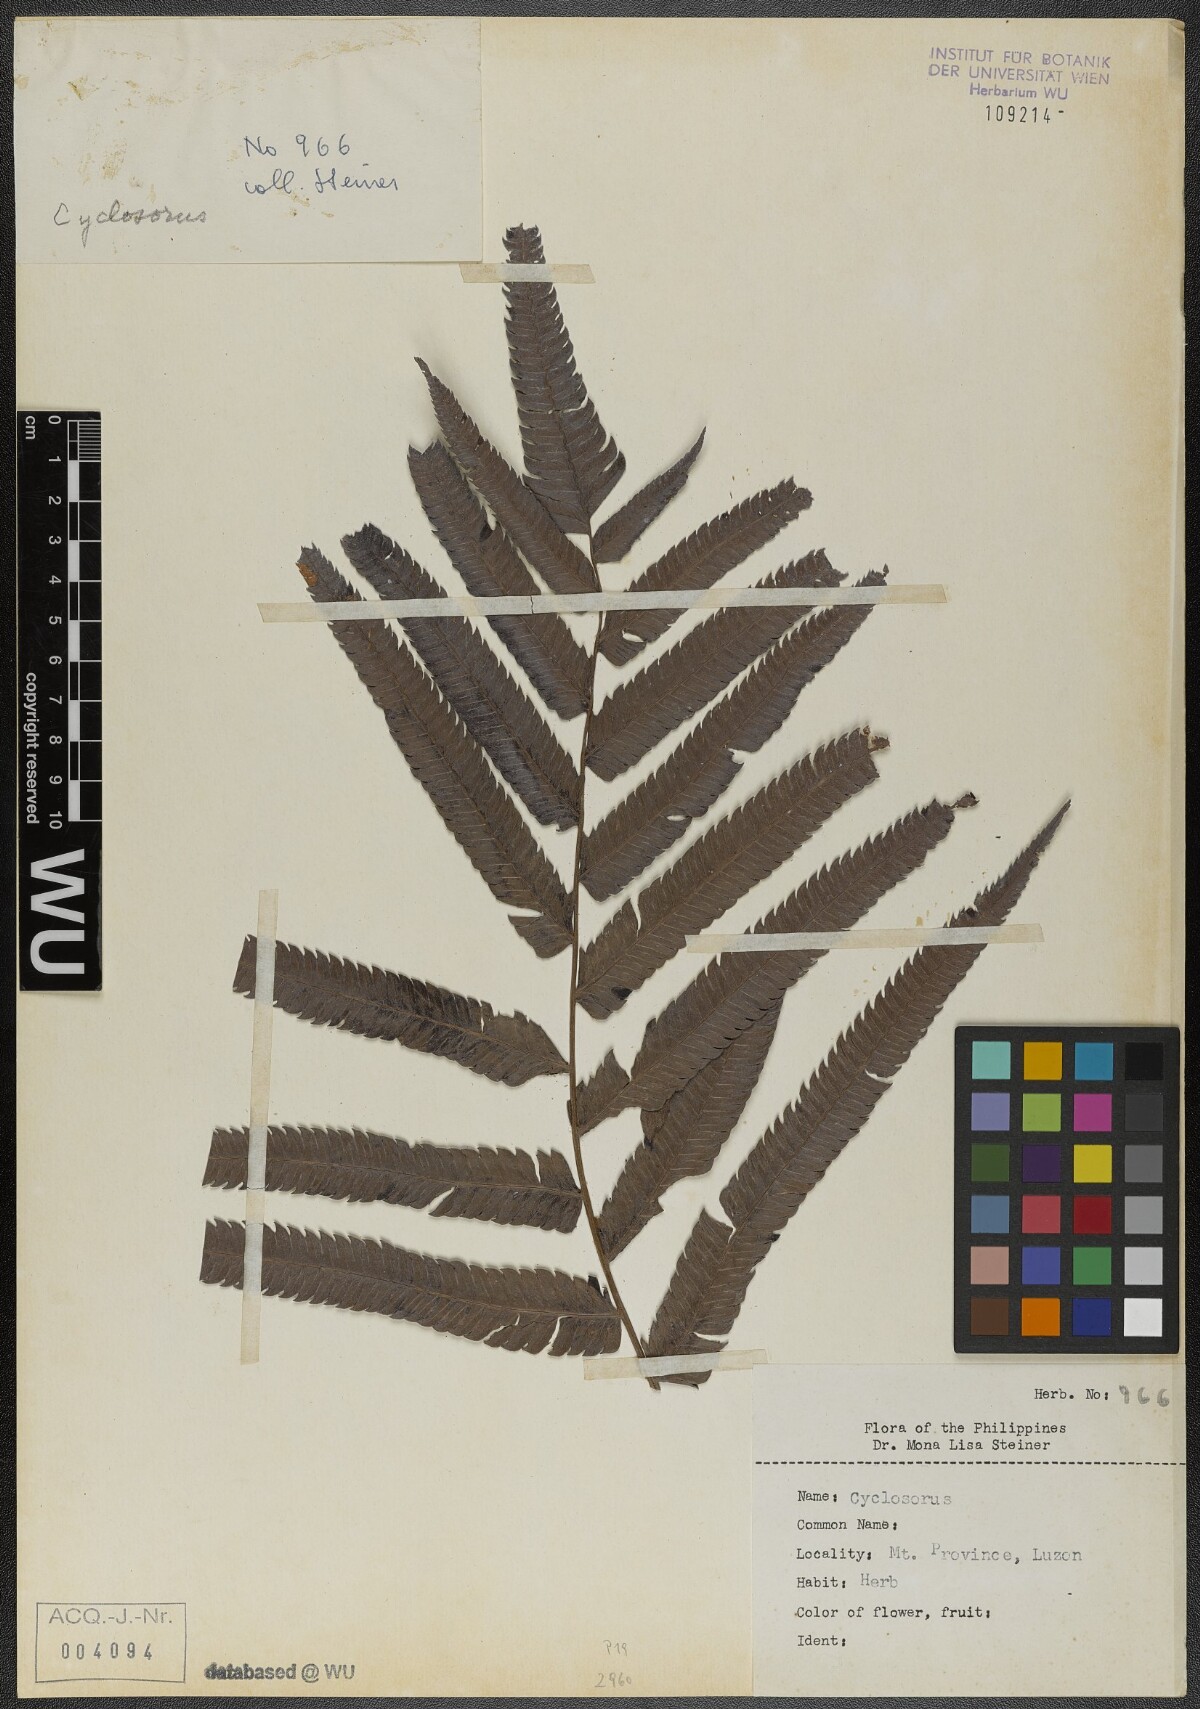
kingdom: Plantae
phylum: Tracheophyta
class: Polypodiopsida
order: Polypodiales
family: Thelypteridaceae
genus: Cyclosorus
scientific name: Cyclosorus
